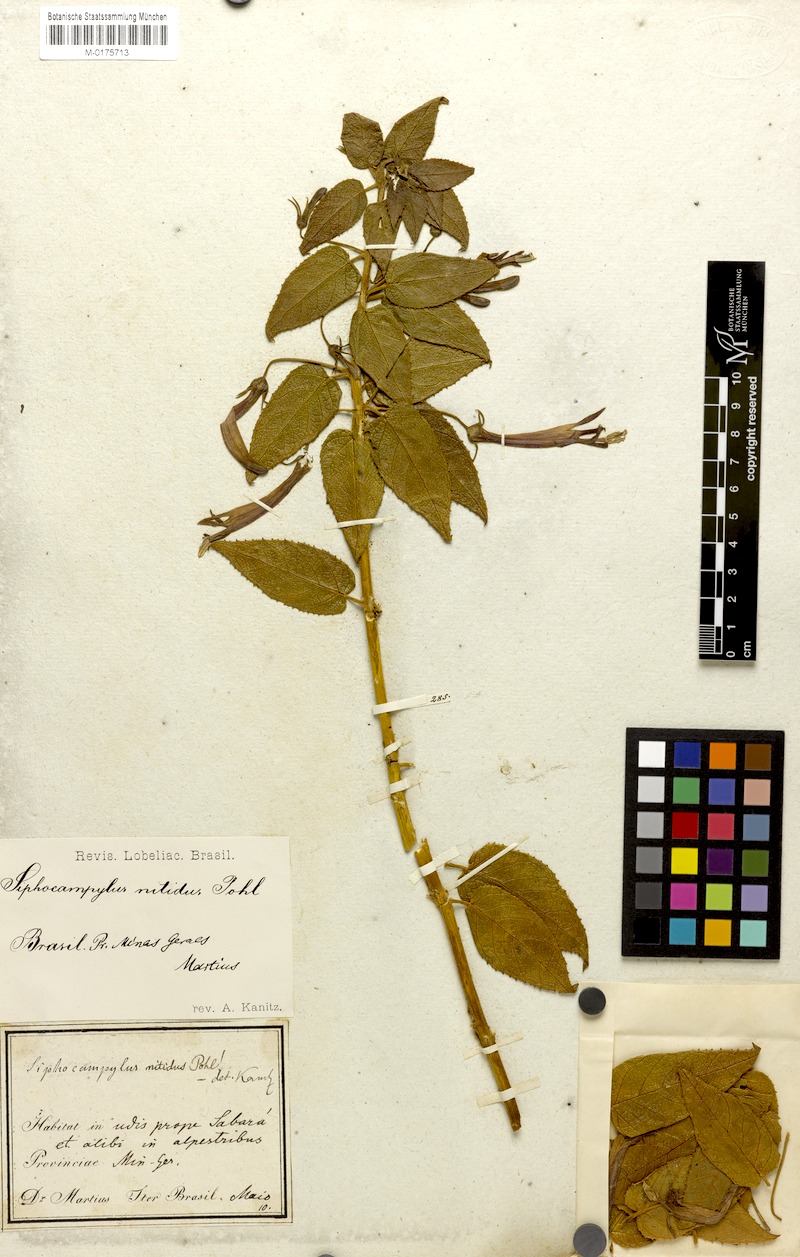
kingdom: Plantae
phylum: Tracheophyta
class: Magnoliopsida
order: Asterales
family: Campanulaceae
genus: Siphocampylus
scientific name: Siphocampylus nitidus
